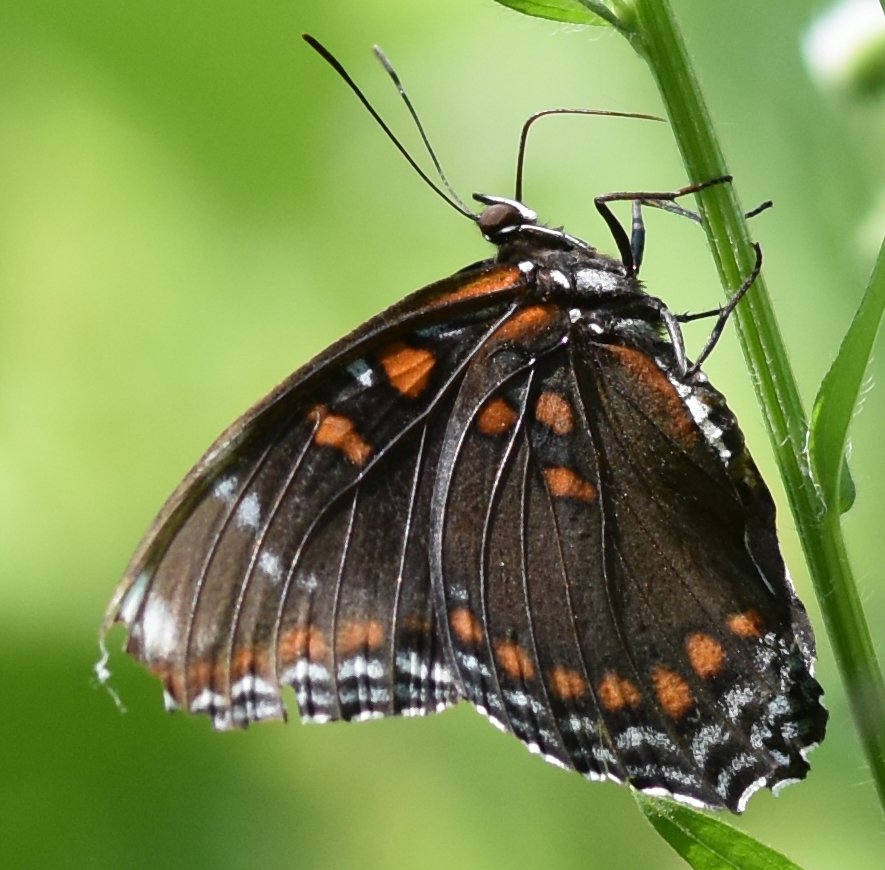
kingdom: Animalia
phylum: Arthropoda
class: Insecta
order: Lepidoptera
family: Nymphalidae
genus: Limenitis
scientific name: Limenitis astyanax
